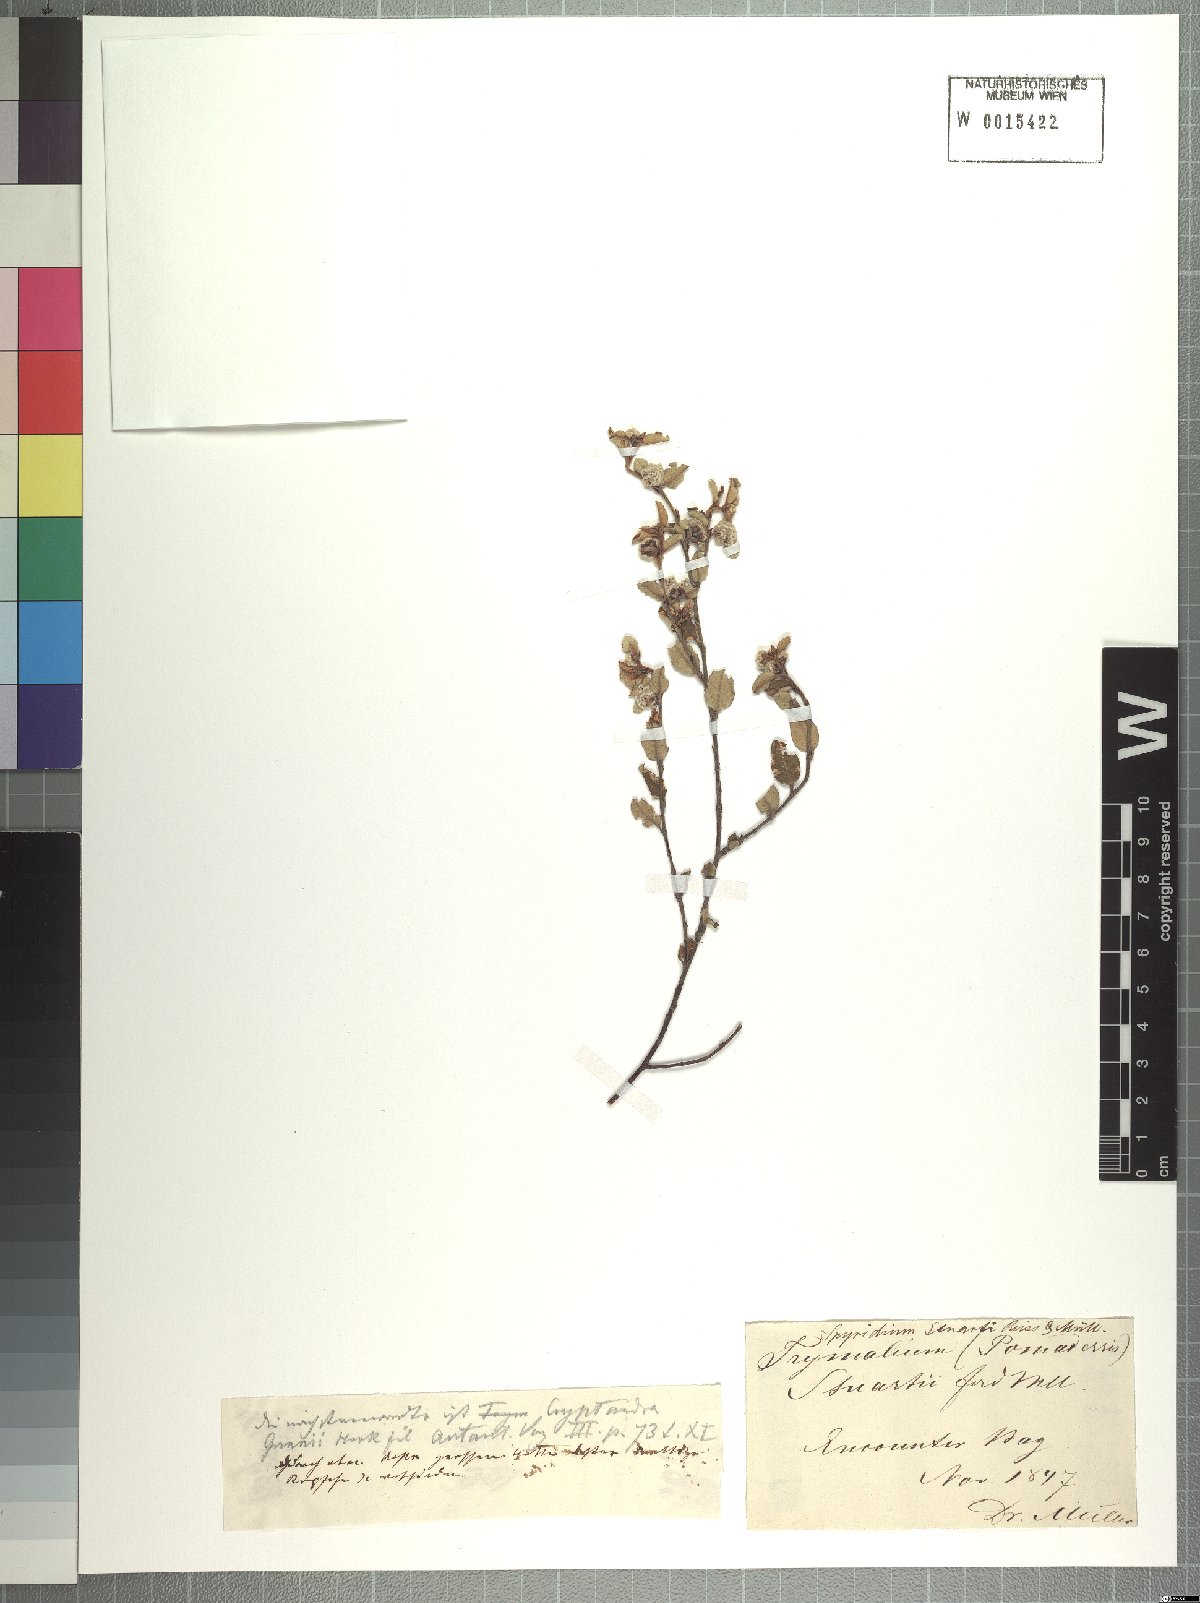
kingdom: Plantae
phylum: Tracheophyta
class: Magnoliopsida
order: Rosales
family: Rhamnaceae
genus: Spyridium
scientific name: Spyridium coactilifolium
